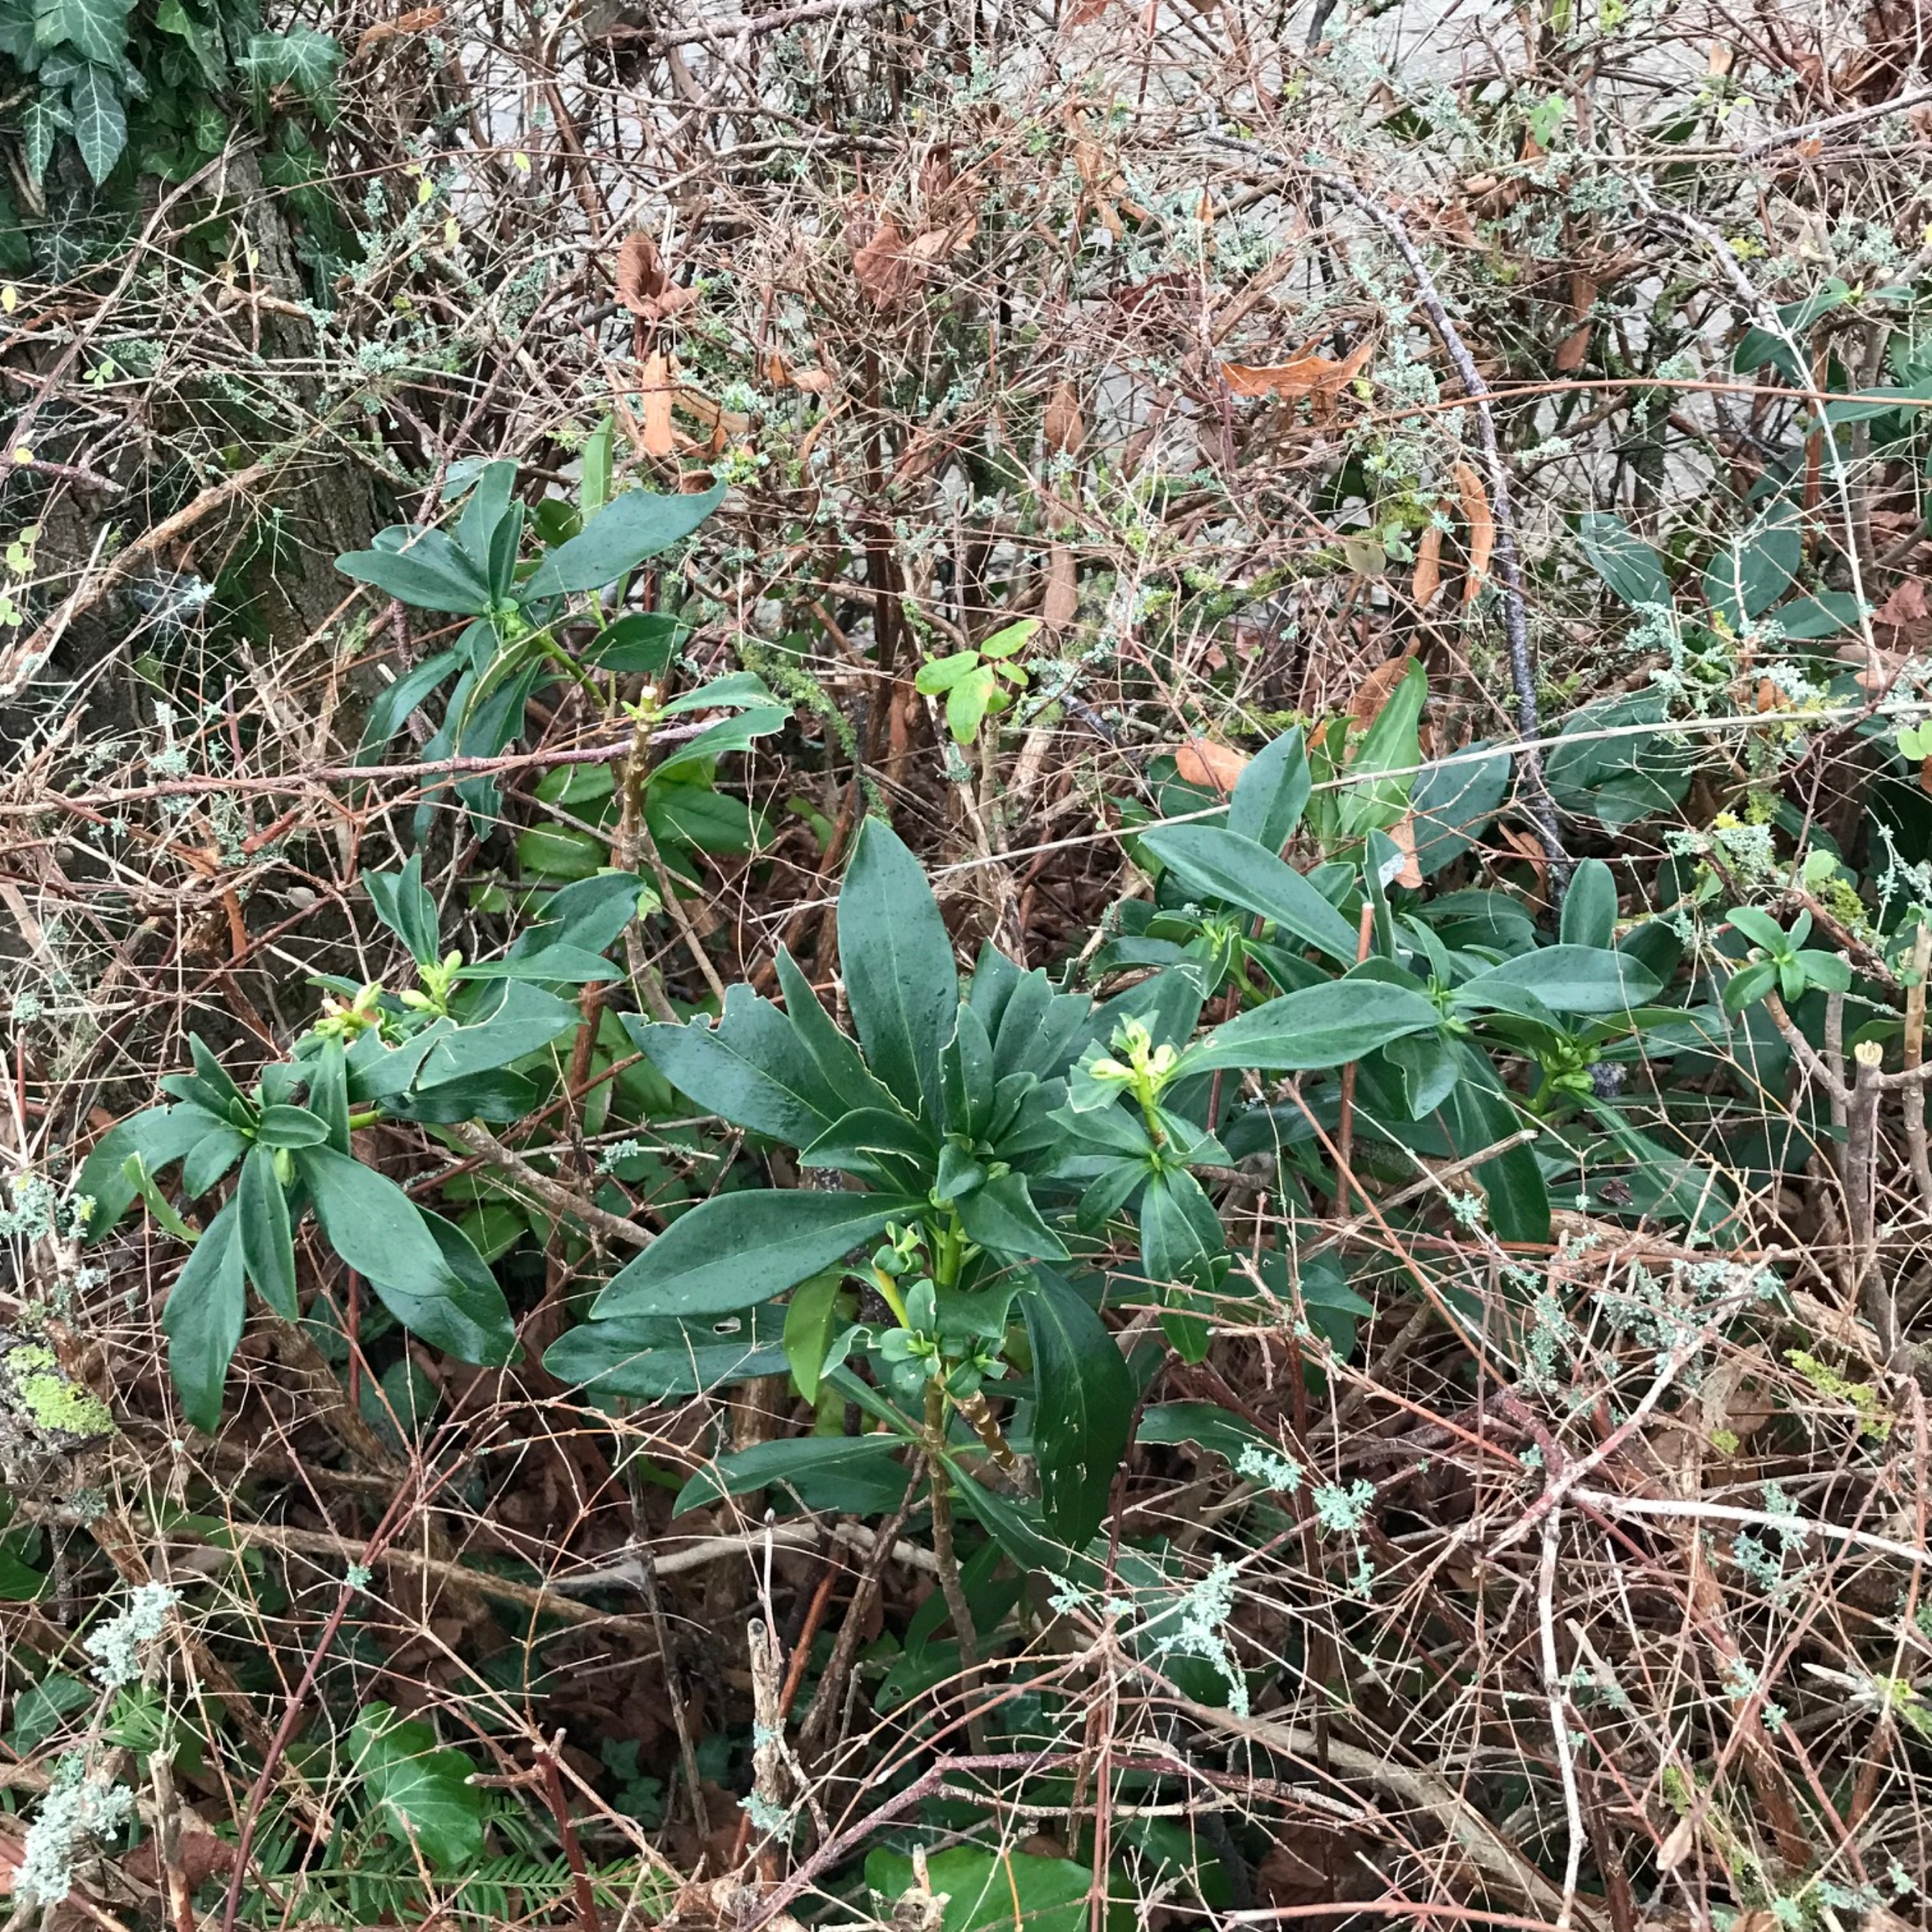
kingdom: Plantae
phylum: Tracheophyta
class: Magnoliopsida
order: Malvales
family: Thymelaeaceae
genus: Daphne
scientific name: Daphne laureola
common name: Laurbær-dafne
